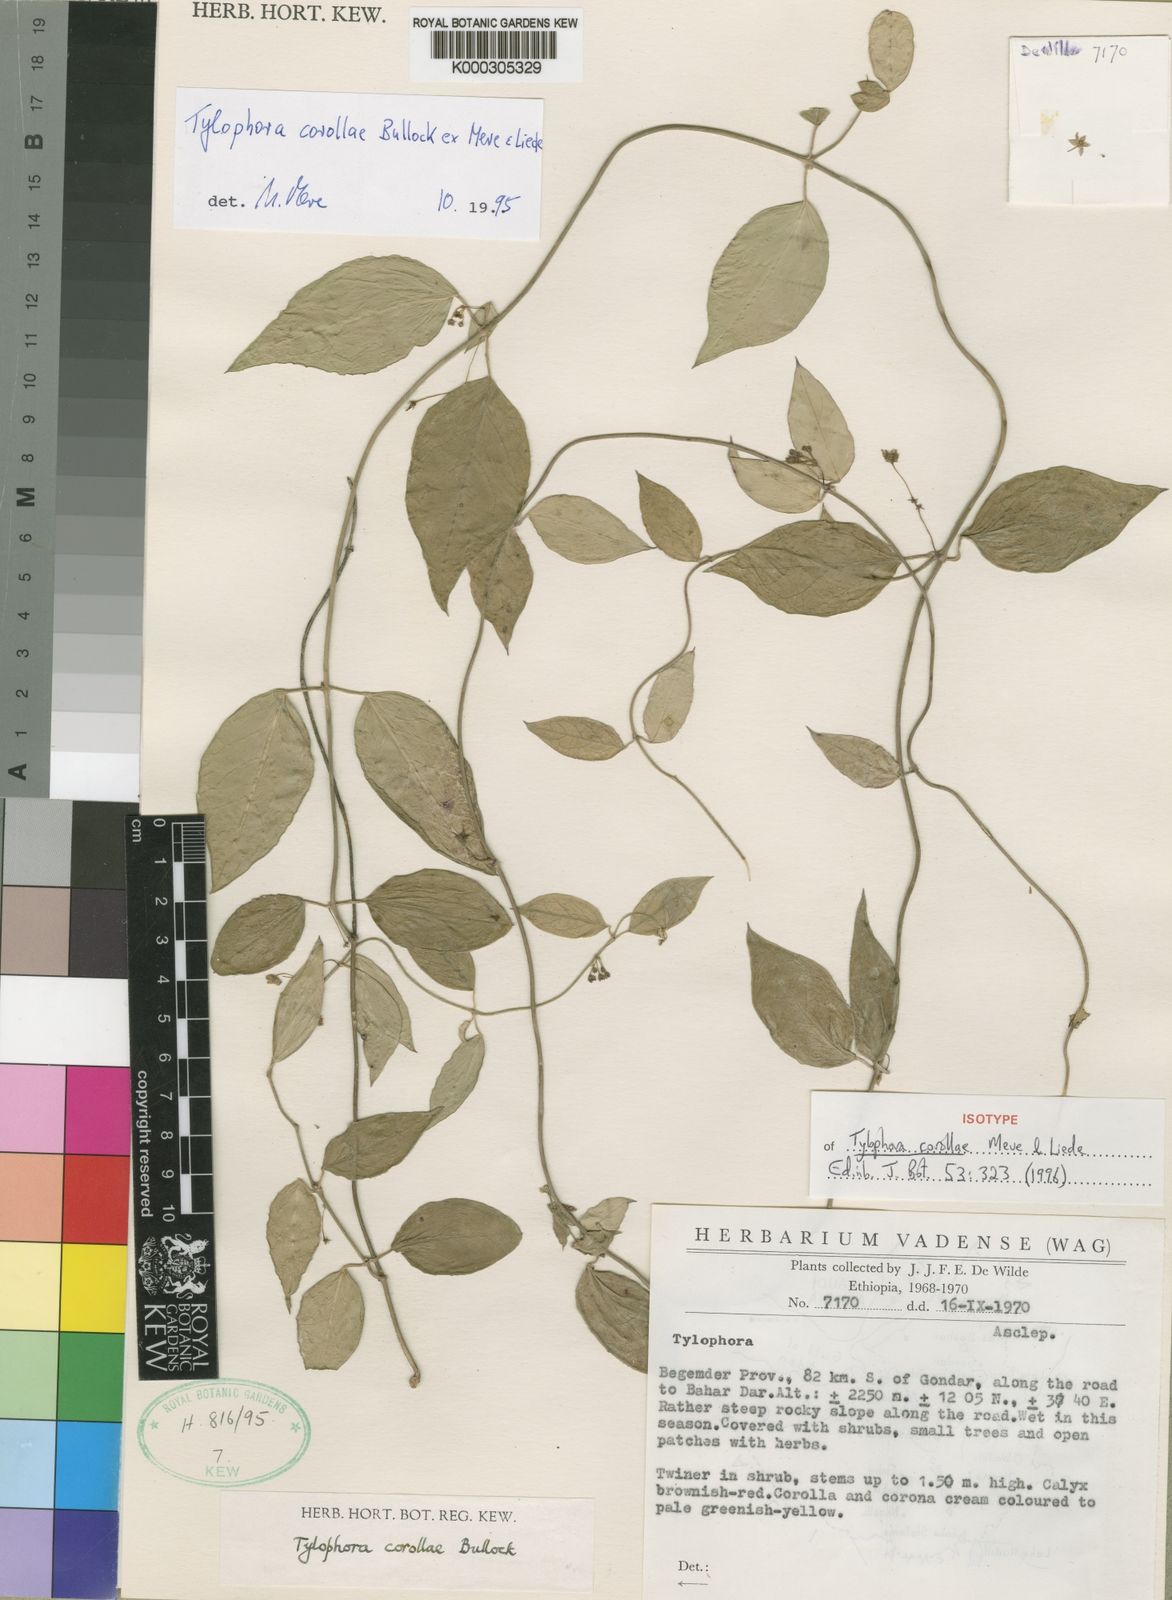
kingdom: Plantae
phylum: Tracheophyta
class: Magnoliopsida
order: Gentianales
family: Apocynaceae
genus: Vincetoxicum
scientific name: Vincetoxicum lugardiae
